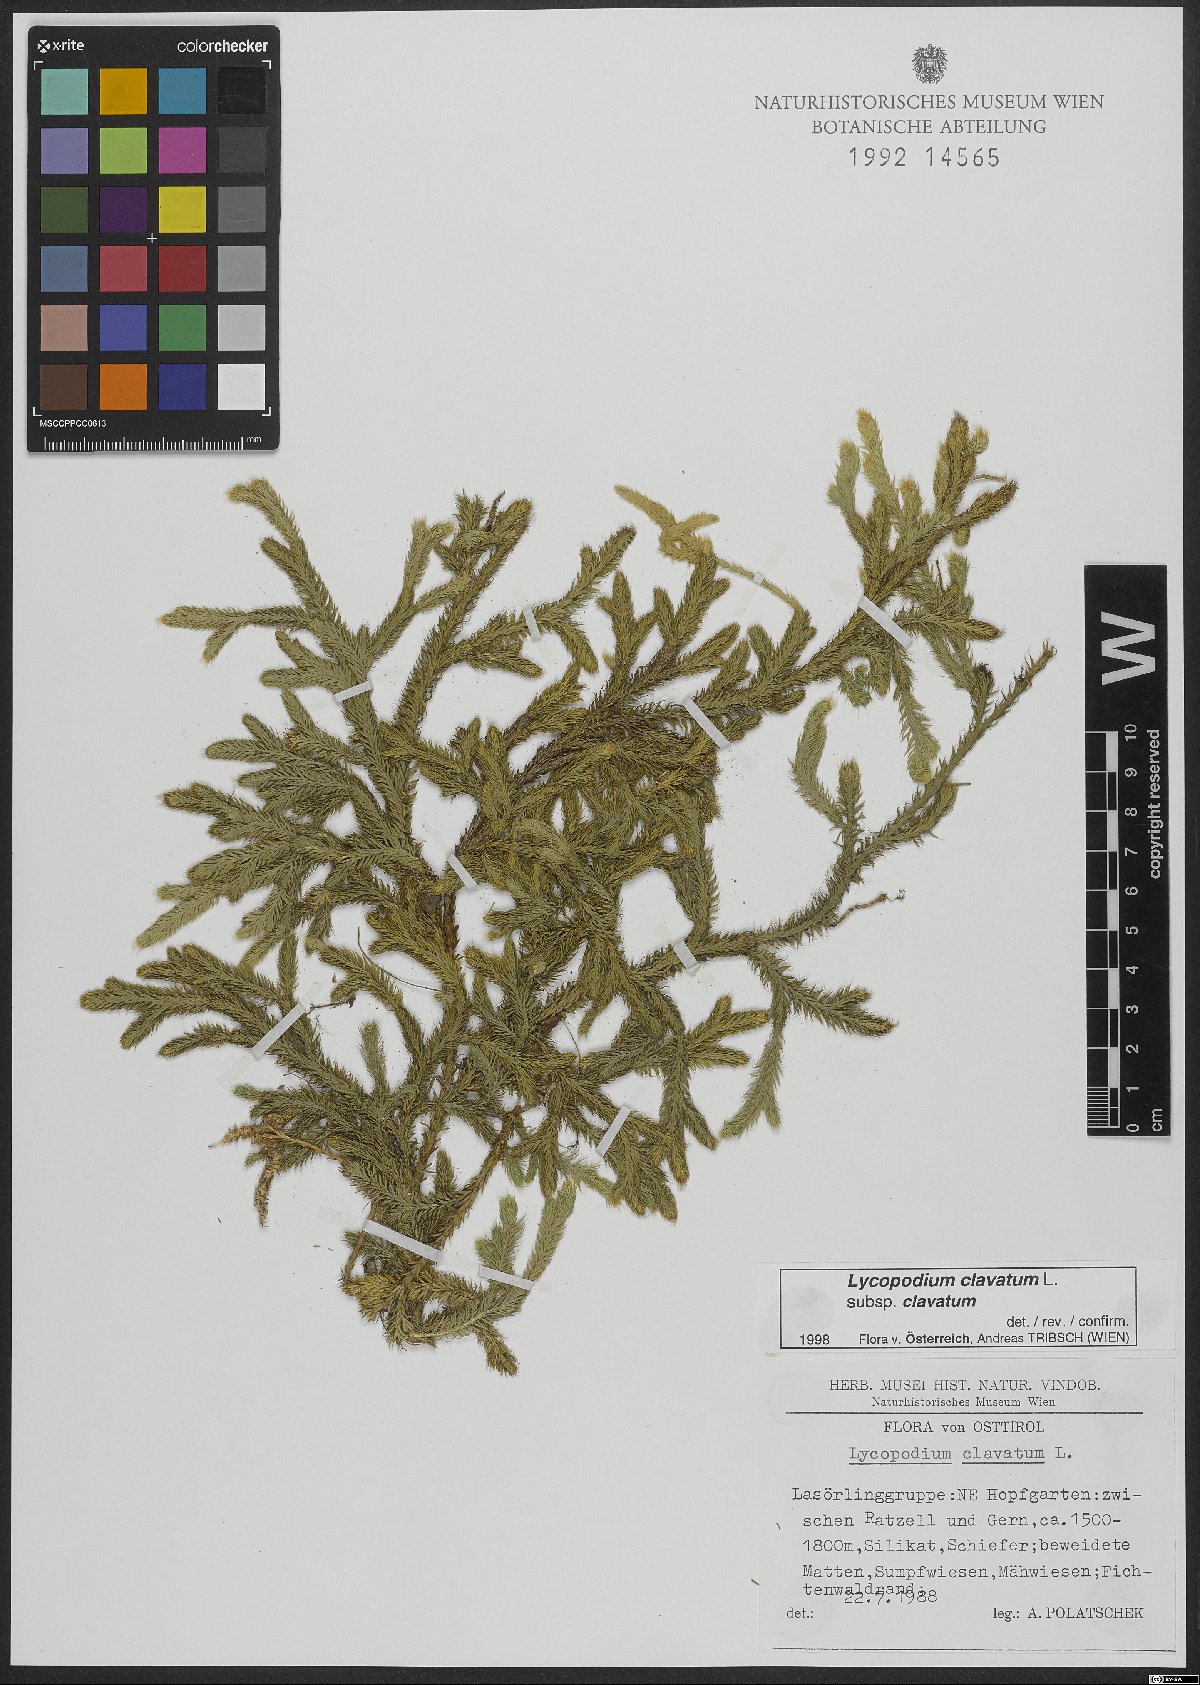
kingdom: Plantae
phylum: Tracheophyta
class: Lycopodiopsida
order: Lycopodiales
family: Lycopodiaceae
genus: Lycopodium
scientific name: Lycopodium clavatum
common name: Stag's-horn clubmoss
